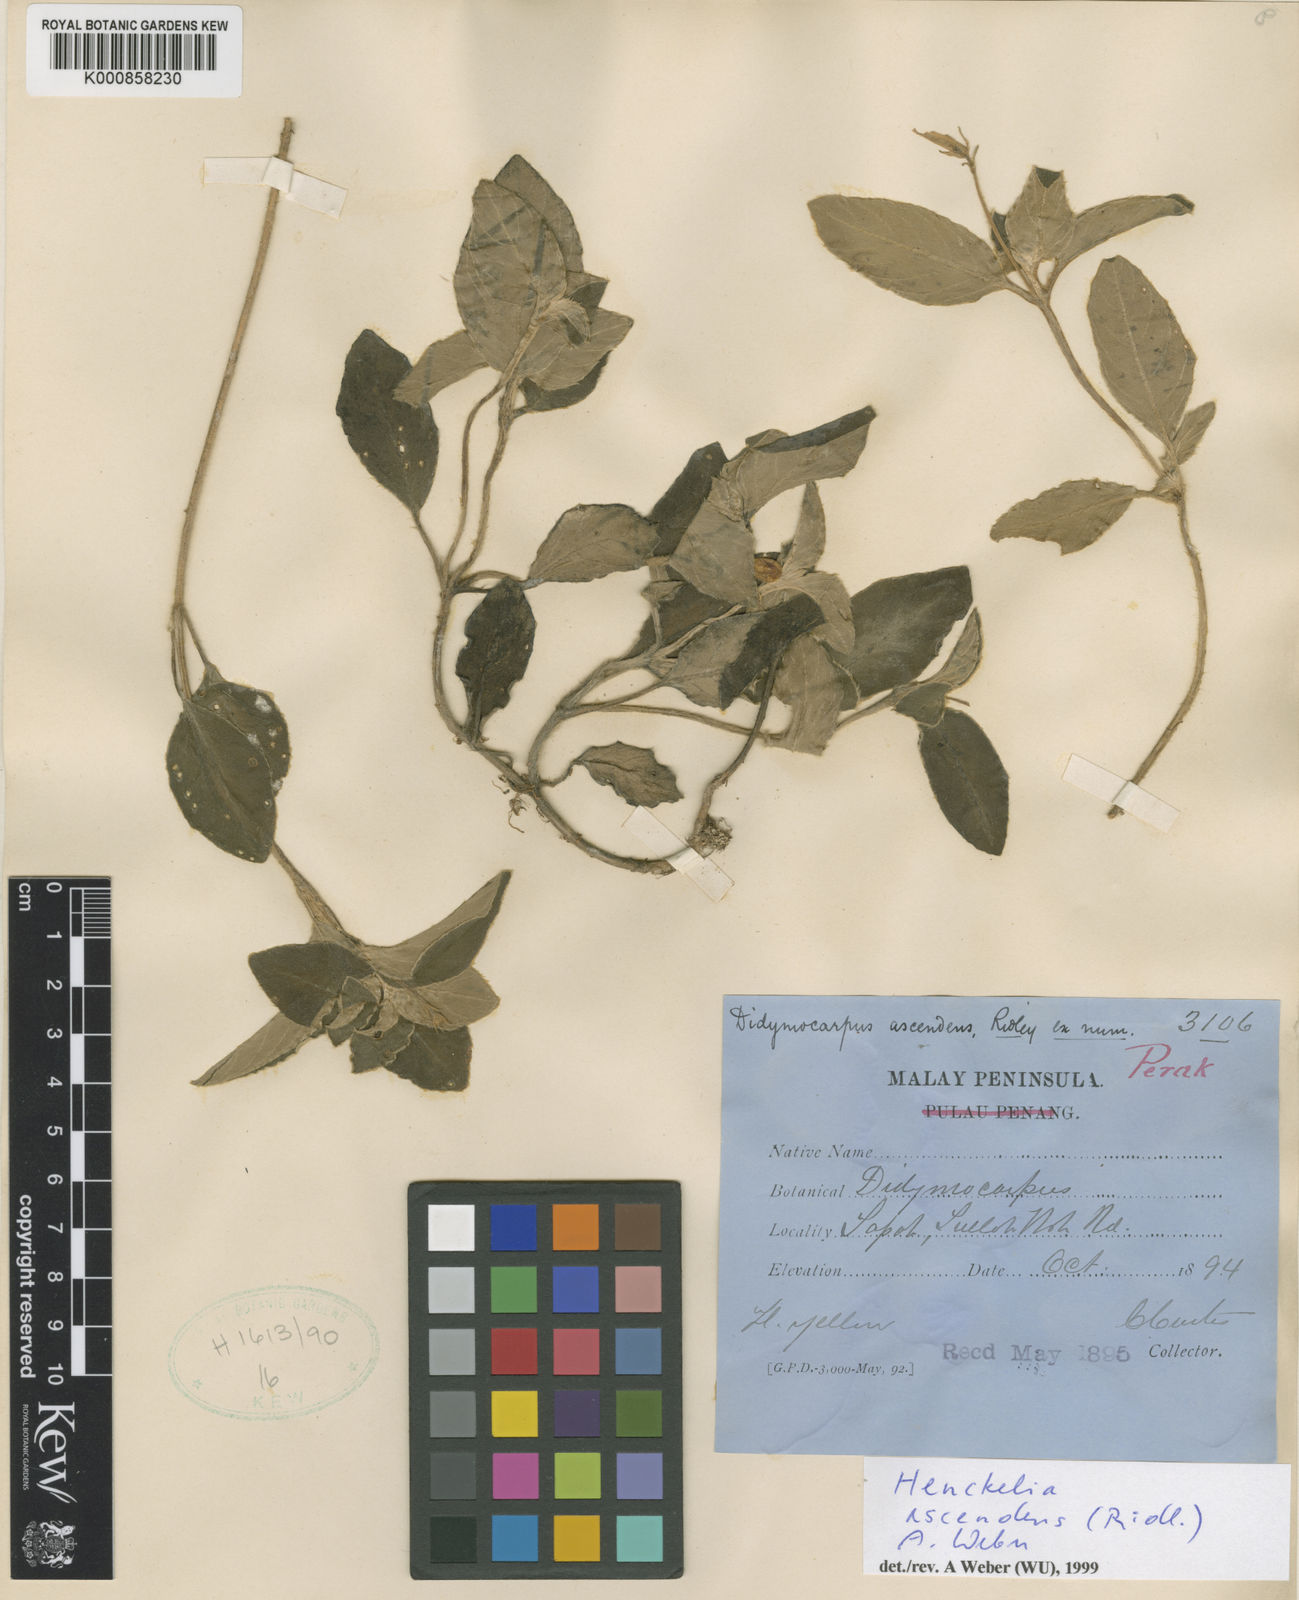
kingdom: Plantae
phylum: Tracheophyta
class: Magnoliopsida
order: Lamiales
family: Gesneriaceae
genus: Codonoboea
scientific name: Codonoboea ascendens
